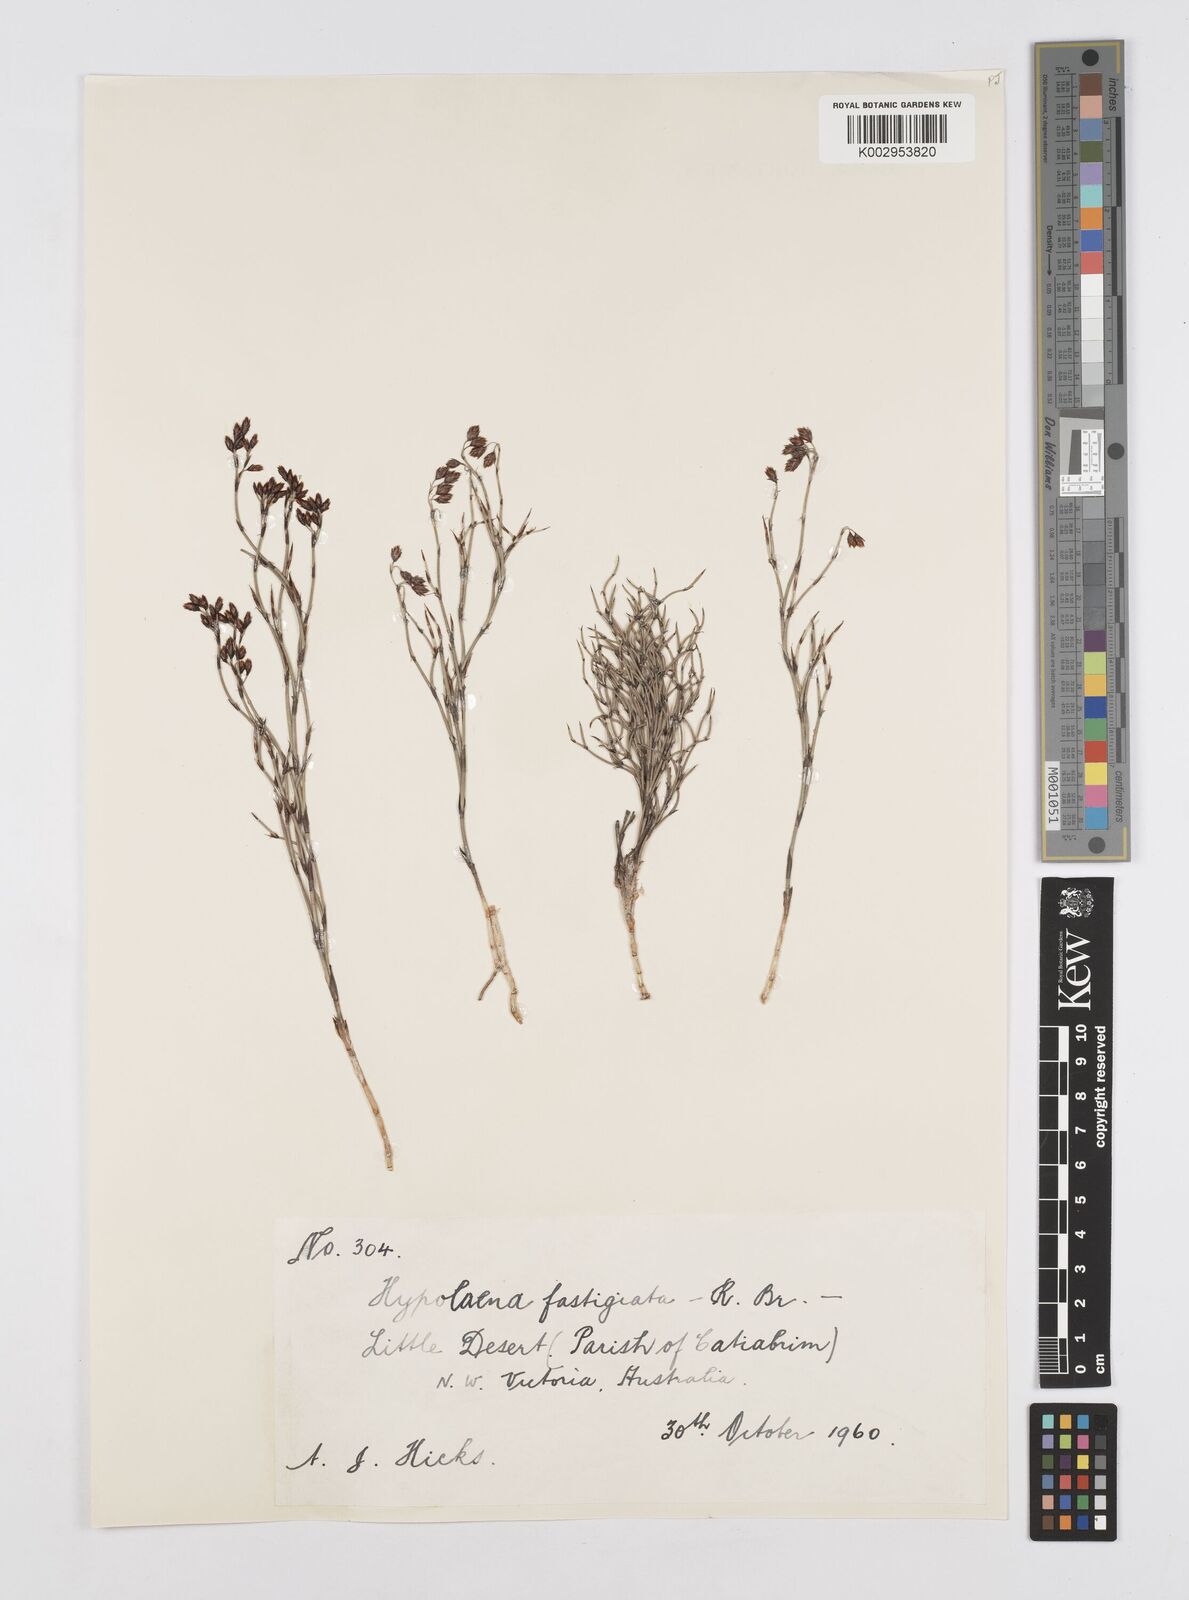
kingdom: Plantae
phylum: Tracheophyta
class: Liliopsida
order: Poales
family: Restionaceae
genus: Hypolaena
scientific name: Hypolaena fastigiata
